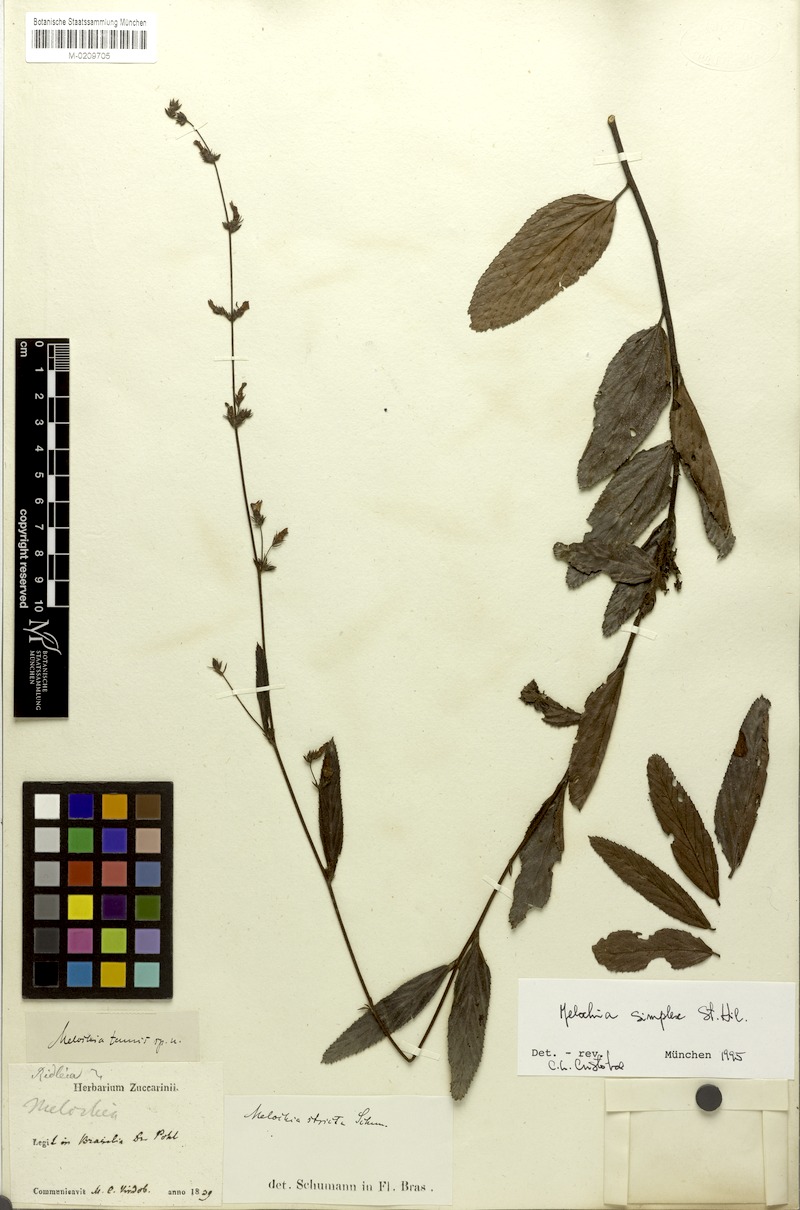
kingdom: Plantae
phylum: Tracheophyta
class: Magnoliopsida
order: Malvales
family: Malvaceae
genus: Melochia
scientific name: Melochia simplex
